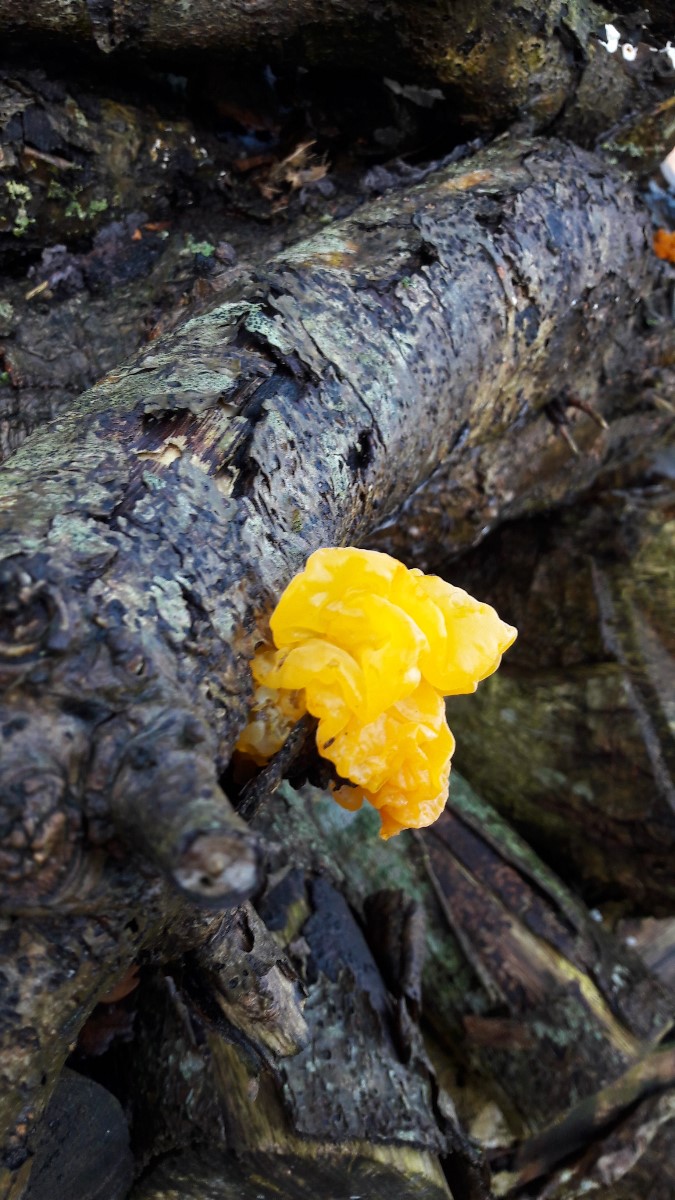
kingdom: Fungi
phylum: Basidiomycota
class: Tremellomycetes
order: Tremellales
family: Tremellaceae
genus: Tremella
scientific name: Tremella mesenterica
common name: gul bævresvamp
